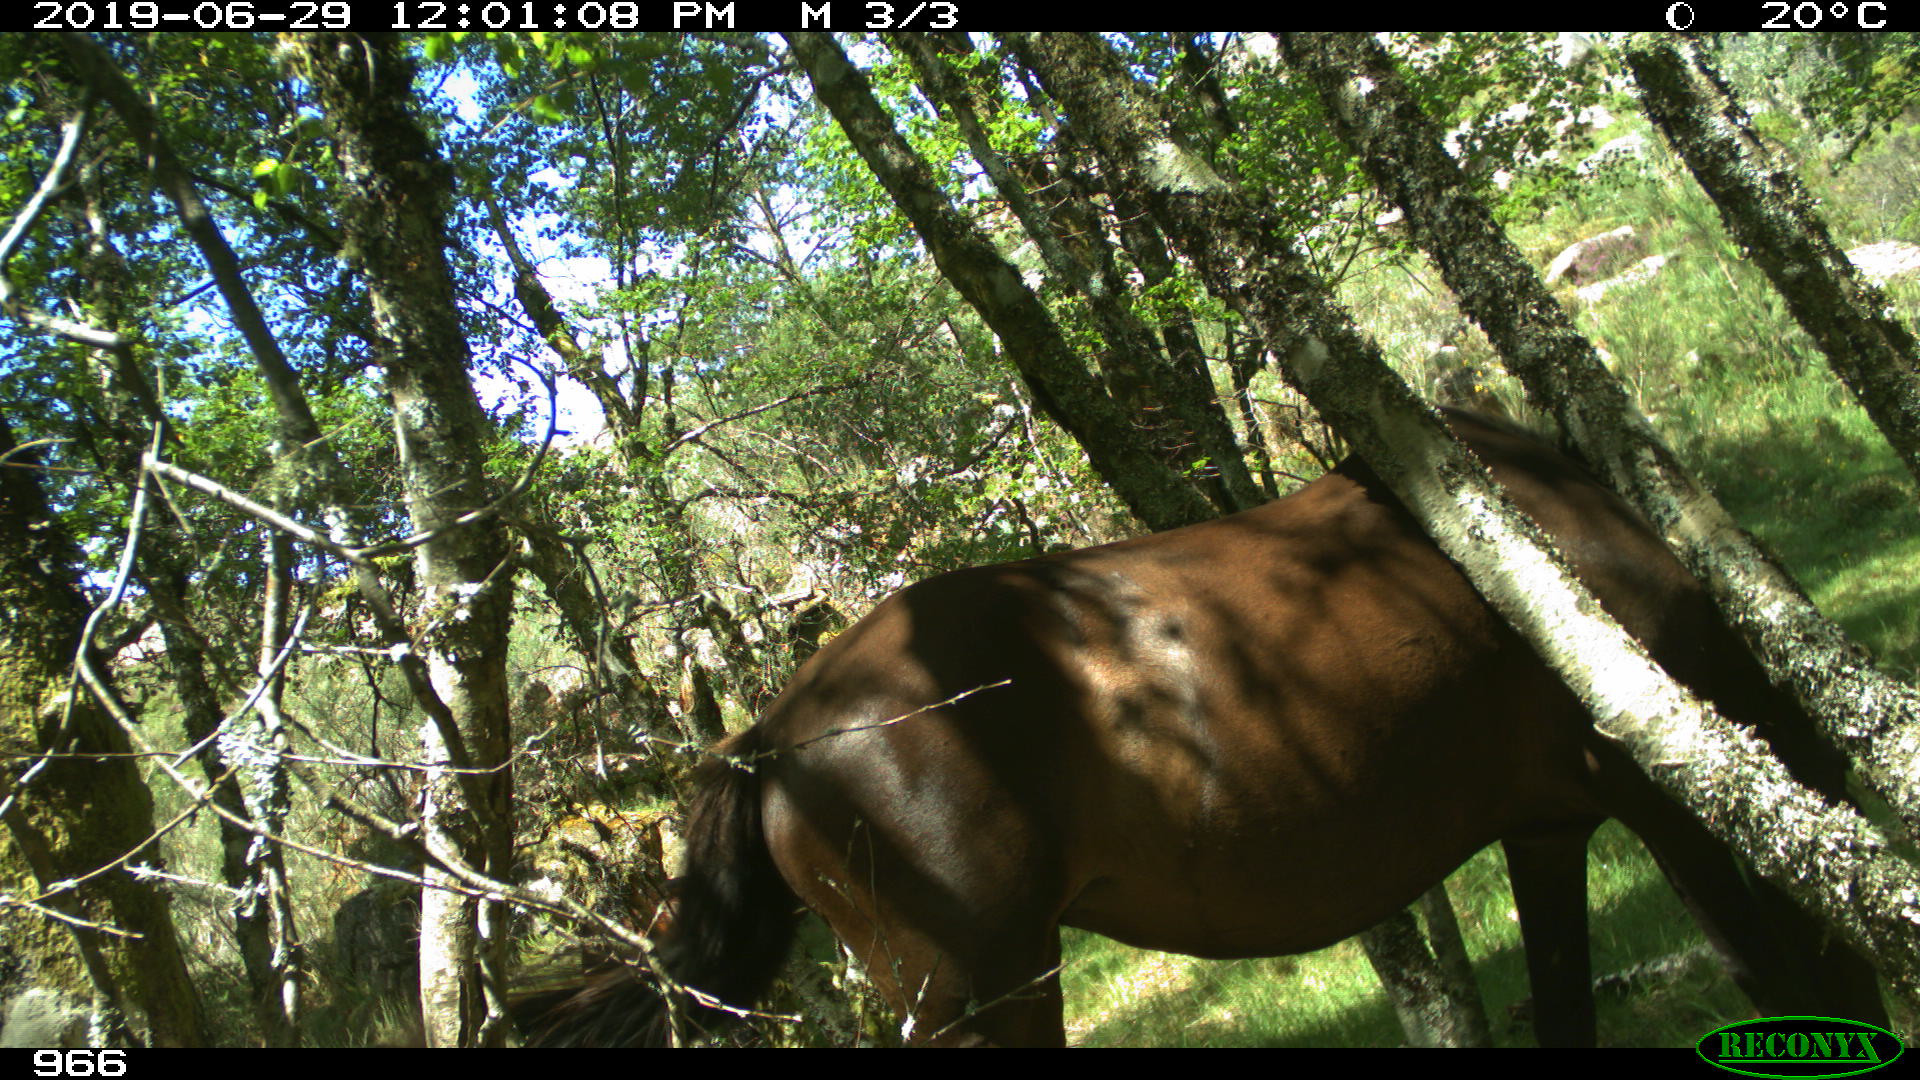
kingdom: Animalia
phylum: Chordata
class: Mammalia
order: Perissodactyla
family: Equidae
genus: Equus
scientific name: Equus caballus
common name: Horse
